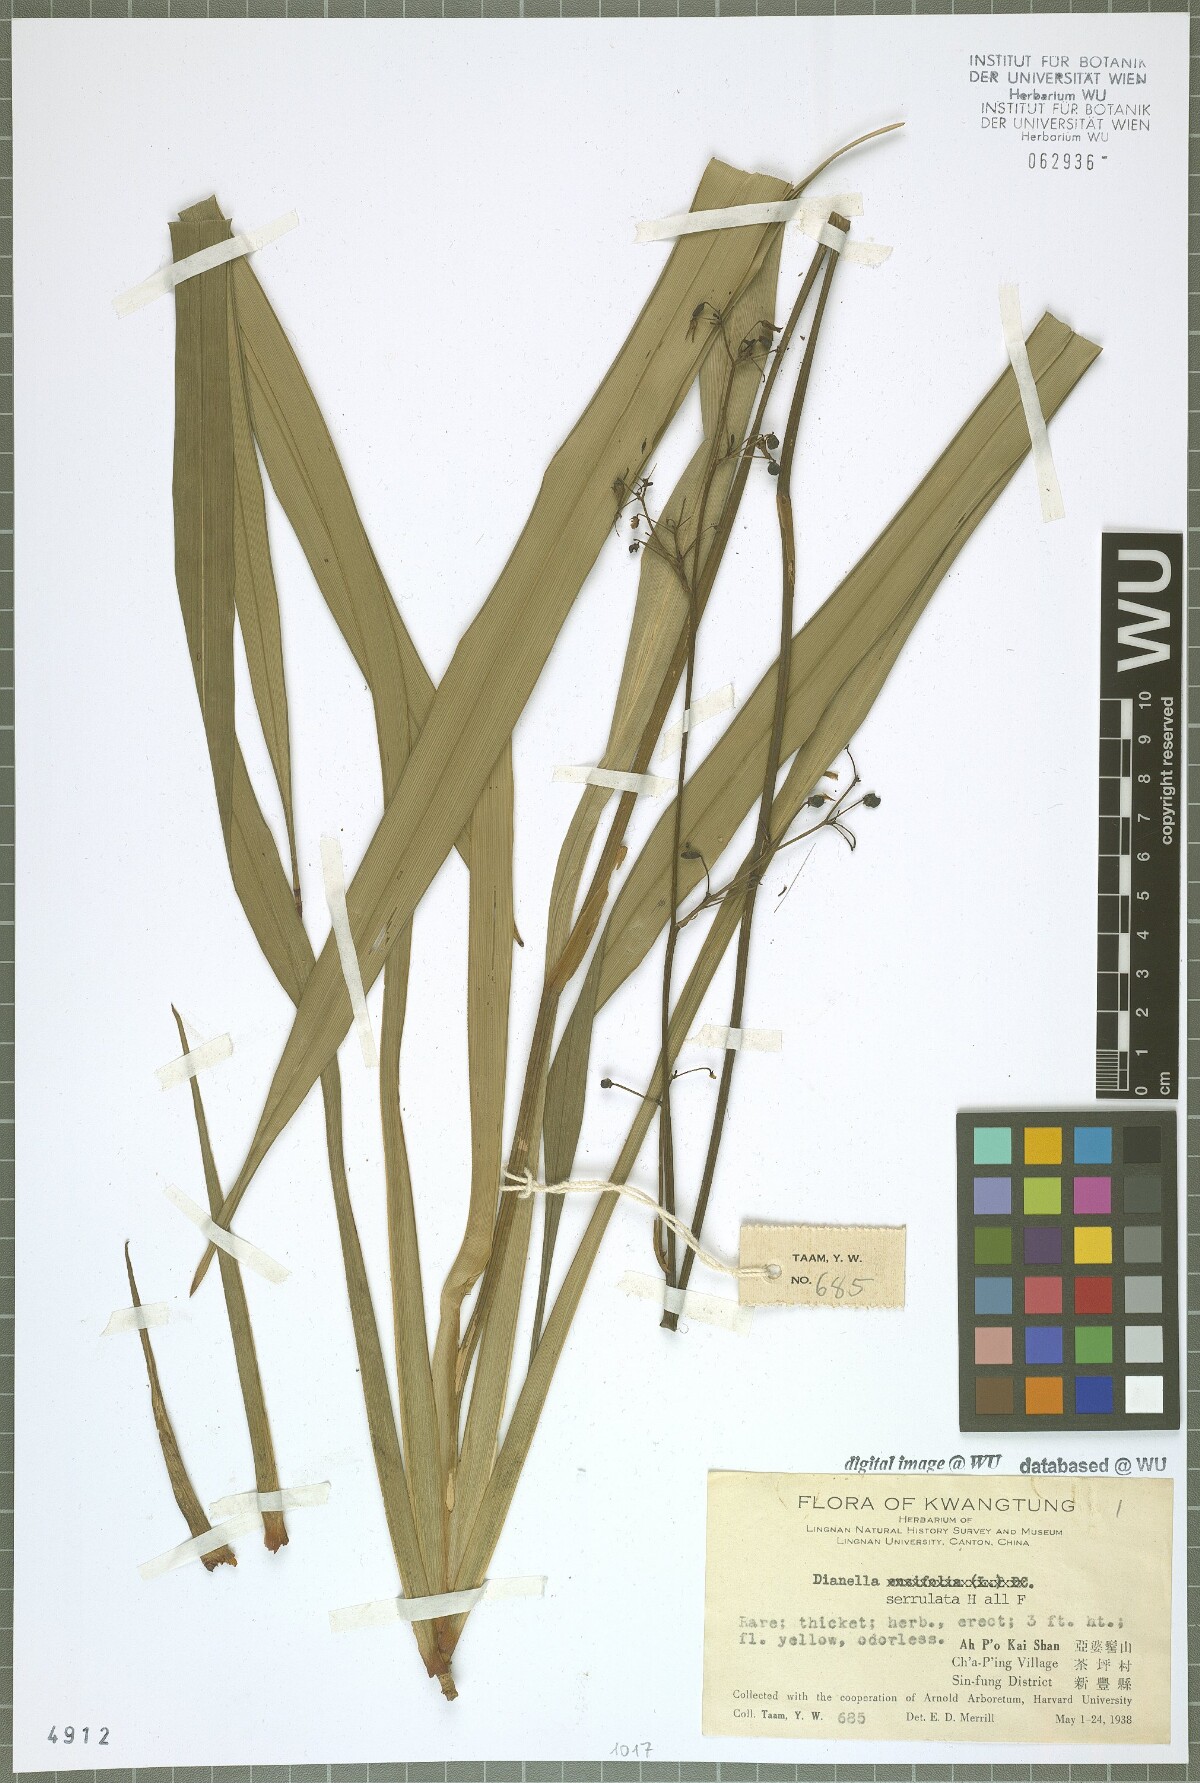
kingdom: Plantae
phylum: Tracheophyta
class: Liliopsida
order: Asparagales
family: Asphodelaceae
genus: Dianella
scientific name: Dianella serrulata
